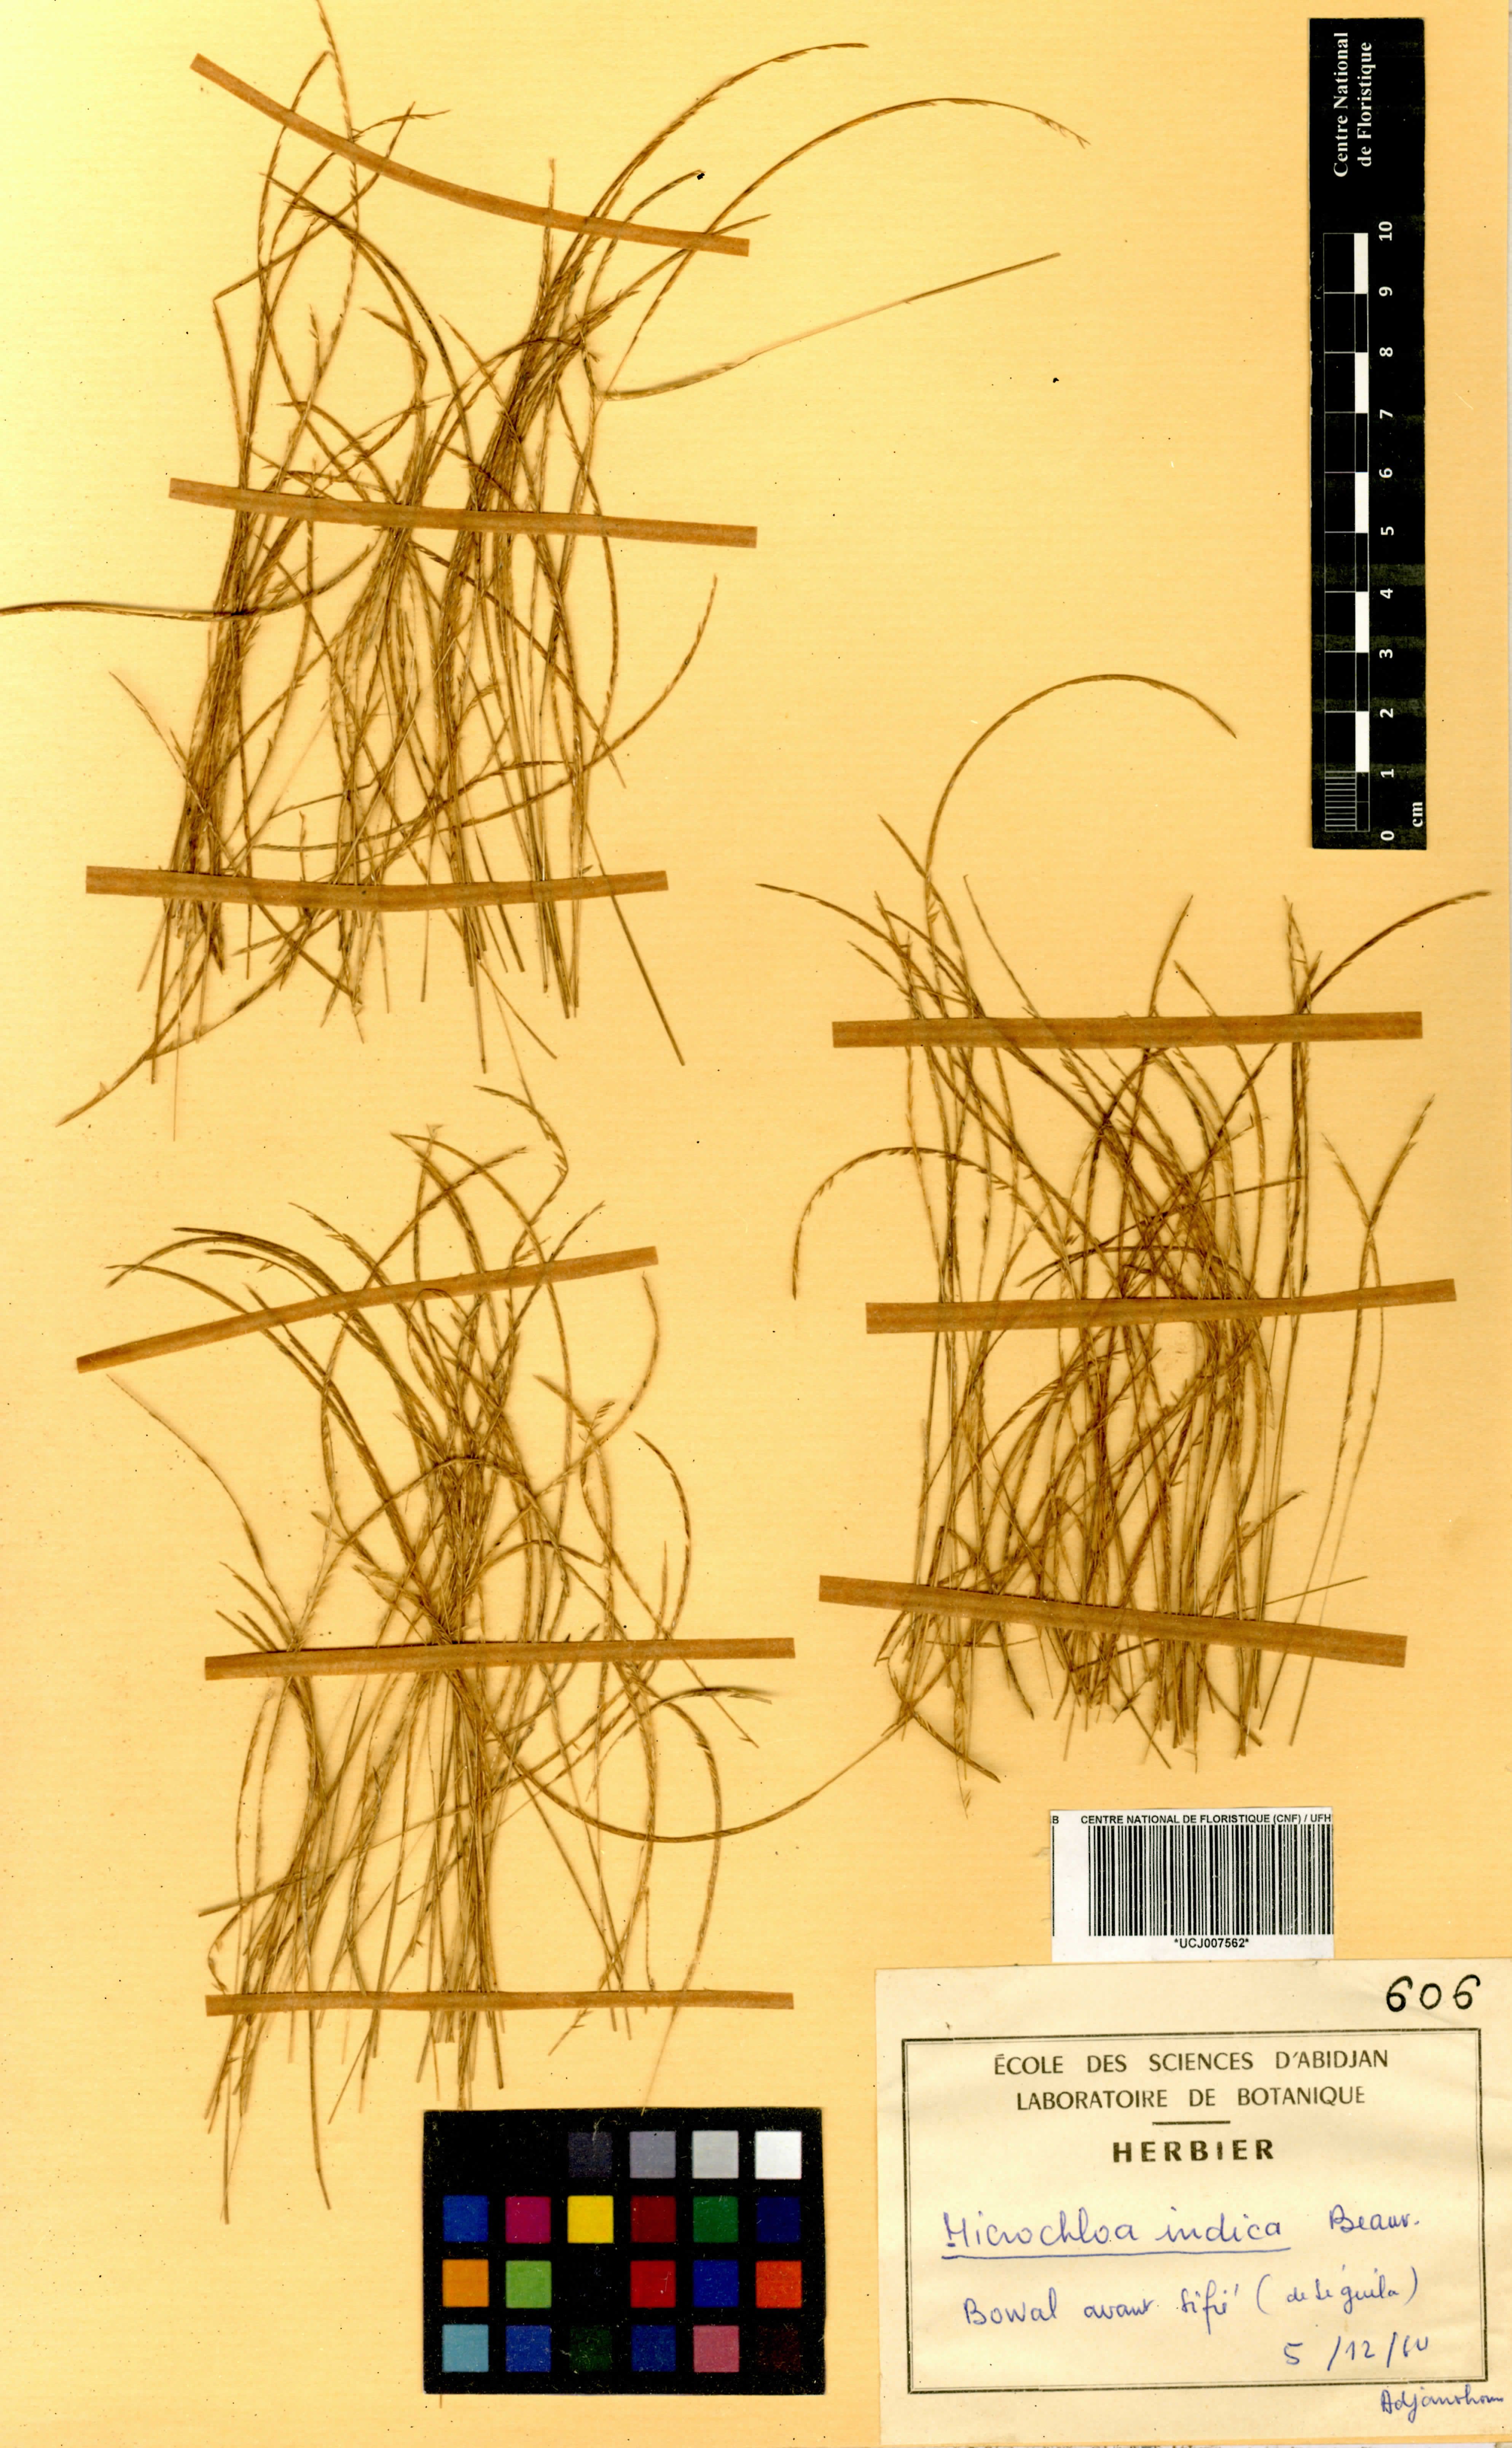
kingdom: Plantae
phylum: Tracheophyta
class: Liliopsida
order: Poales
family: Poaceae
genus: Microchloa
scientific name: Microchloa indica
